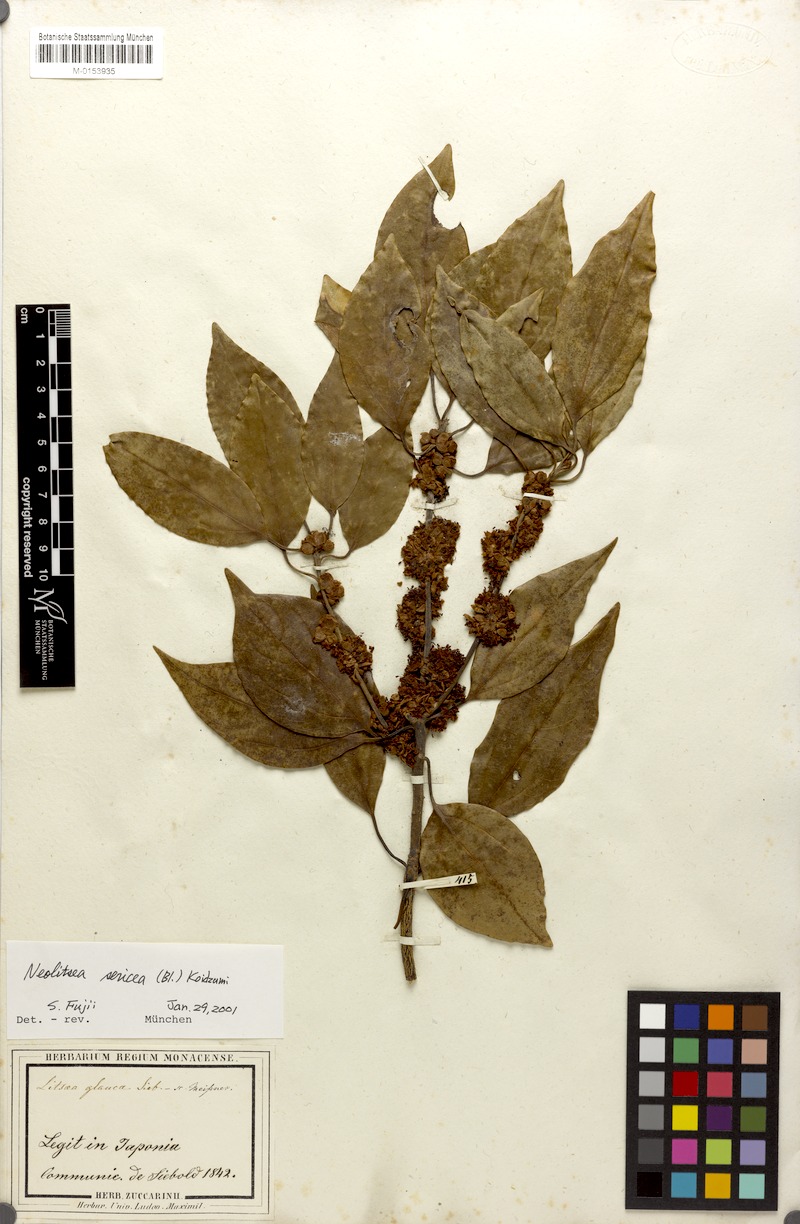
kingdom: Plantae
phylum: Tracheophyta
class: Magnoliopsida
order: Laurales
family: Lauraceae
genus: Neolitsea
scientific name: Neolitsea sericea
